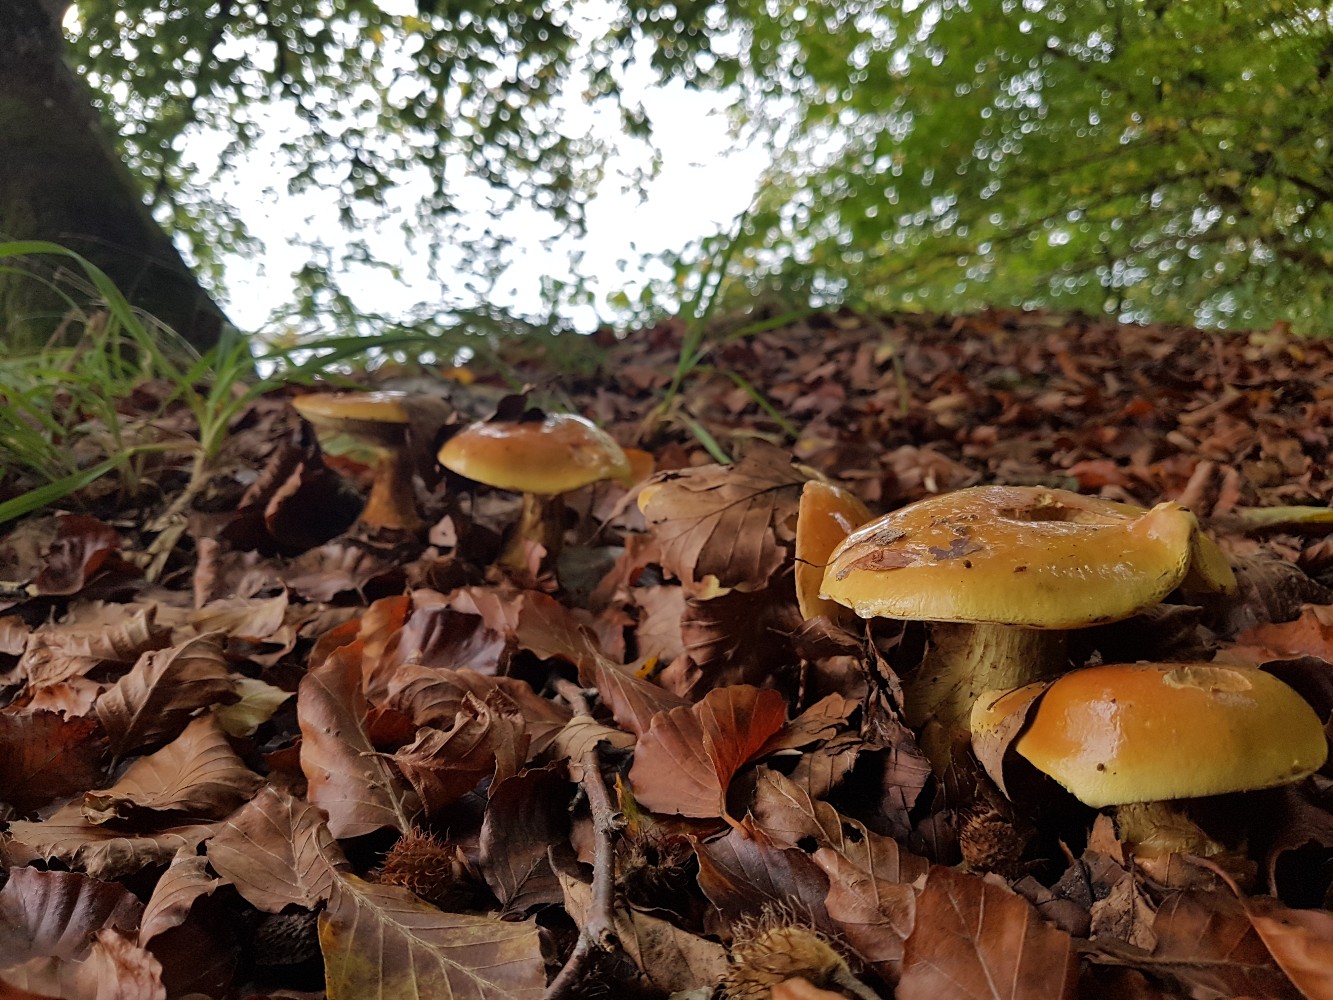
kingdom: Fungi
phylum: Basidiomycota
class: Agaricomycetes
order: Agaricales
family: Cortinariaceae
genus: Calonarius
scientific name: Calonarius elegantissimus
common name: orangegylden slørhat
